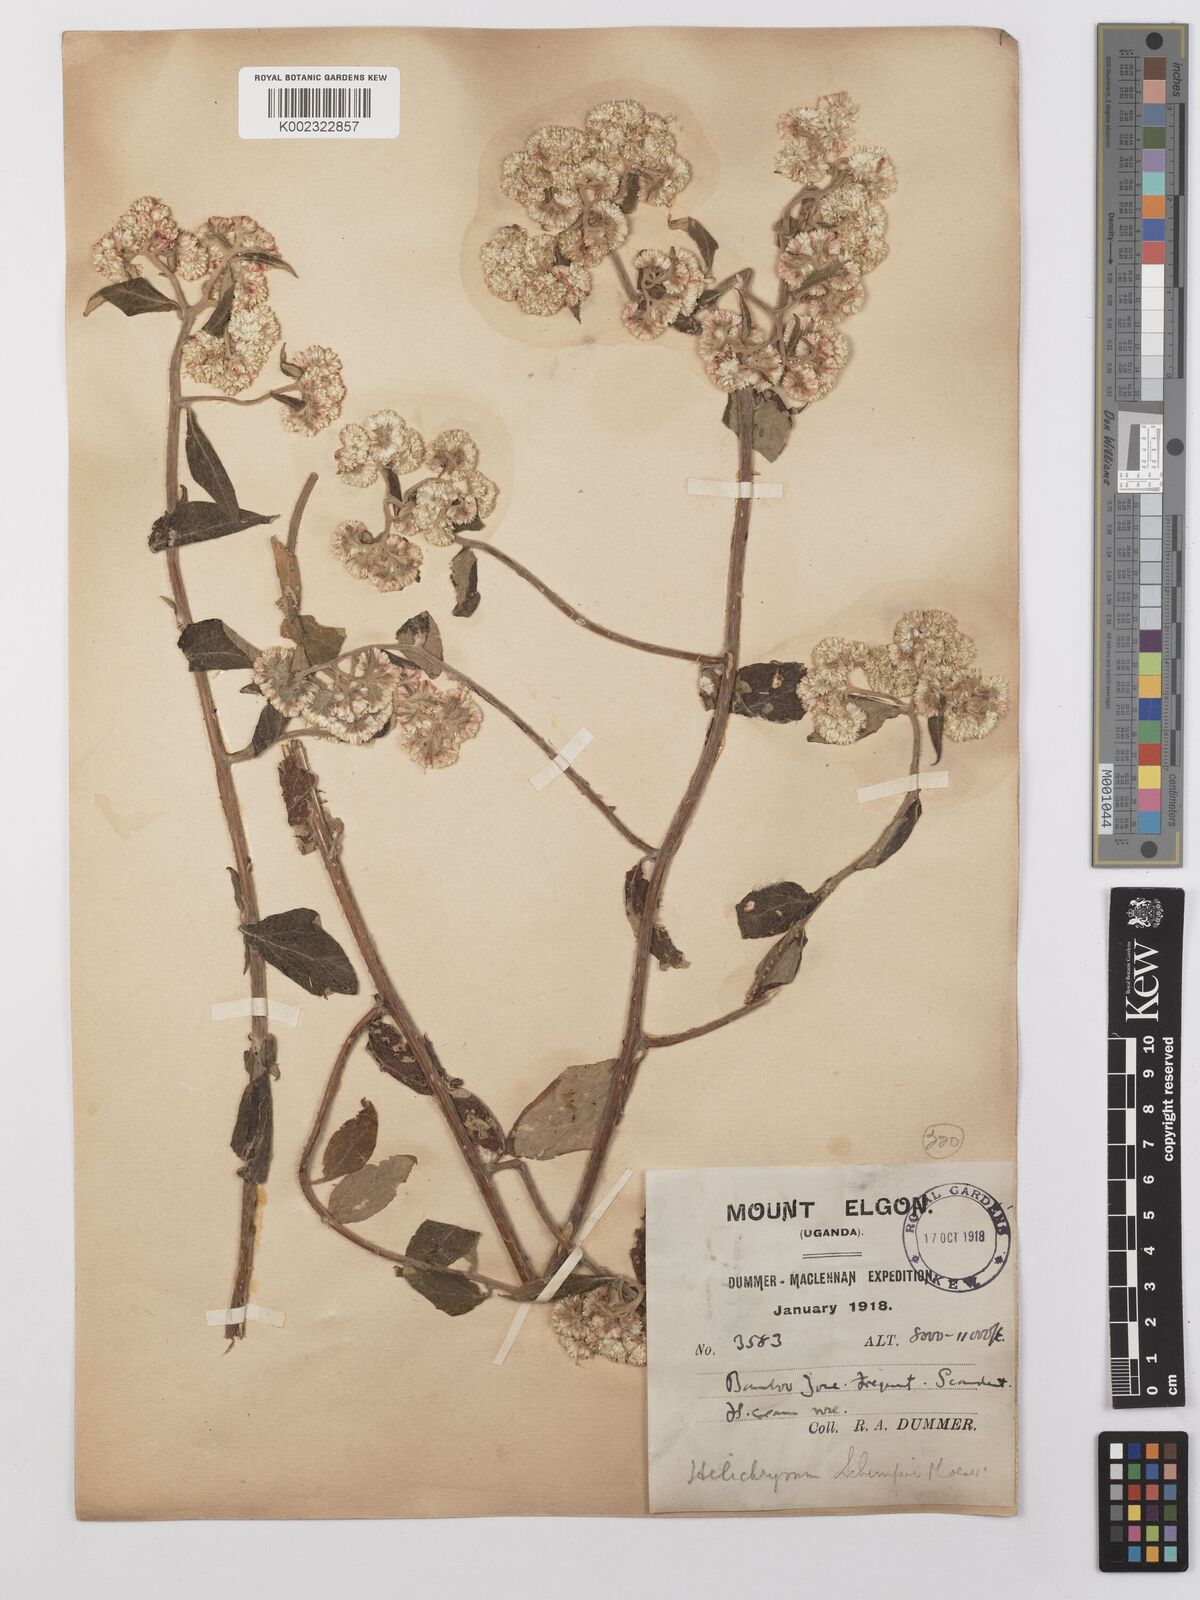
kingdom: Plantae
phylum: Tracheophyta
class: Magnoliopsida
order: Asterales
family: Asteraceae
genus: Helichrysum
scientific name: Helichrysum schimperi
